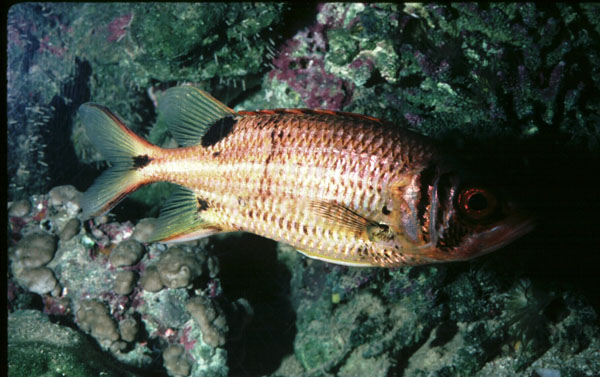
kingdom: Animalia
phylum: Chordata
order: Beryciformes
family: Holocentridae
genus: Sargocentron
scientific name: Sargocentron melanospilos
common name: Blackblotch squirrelfish
